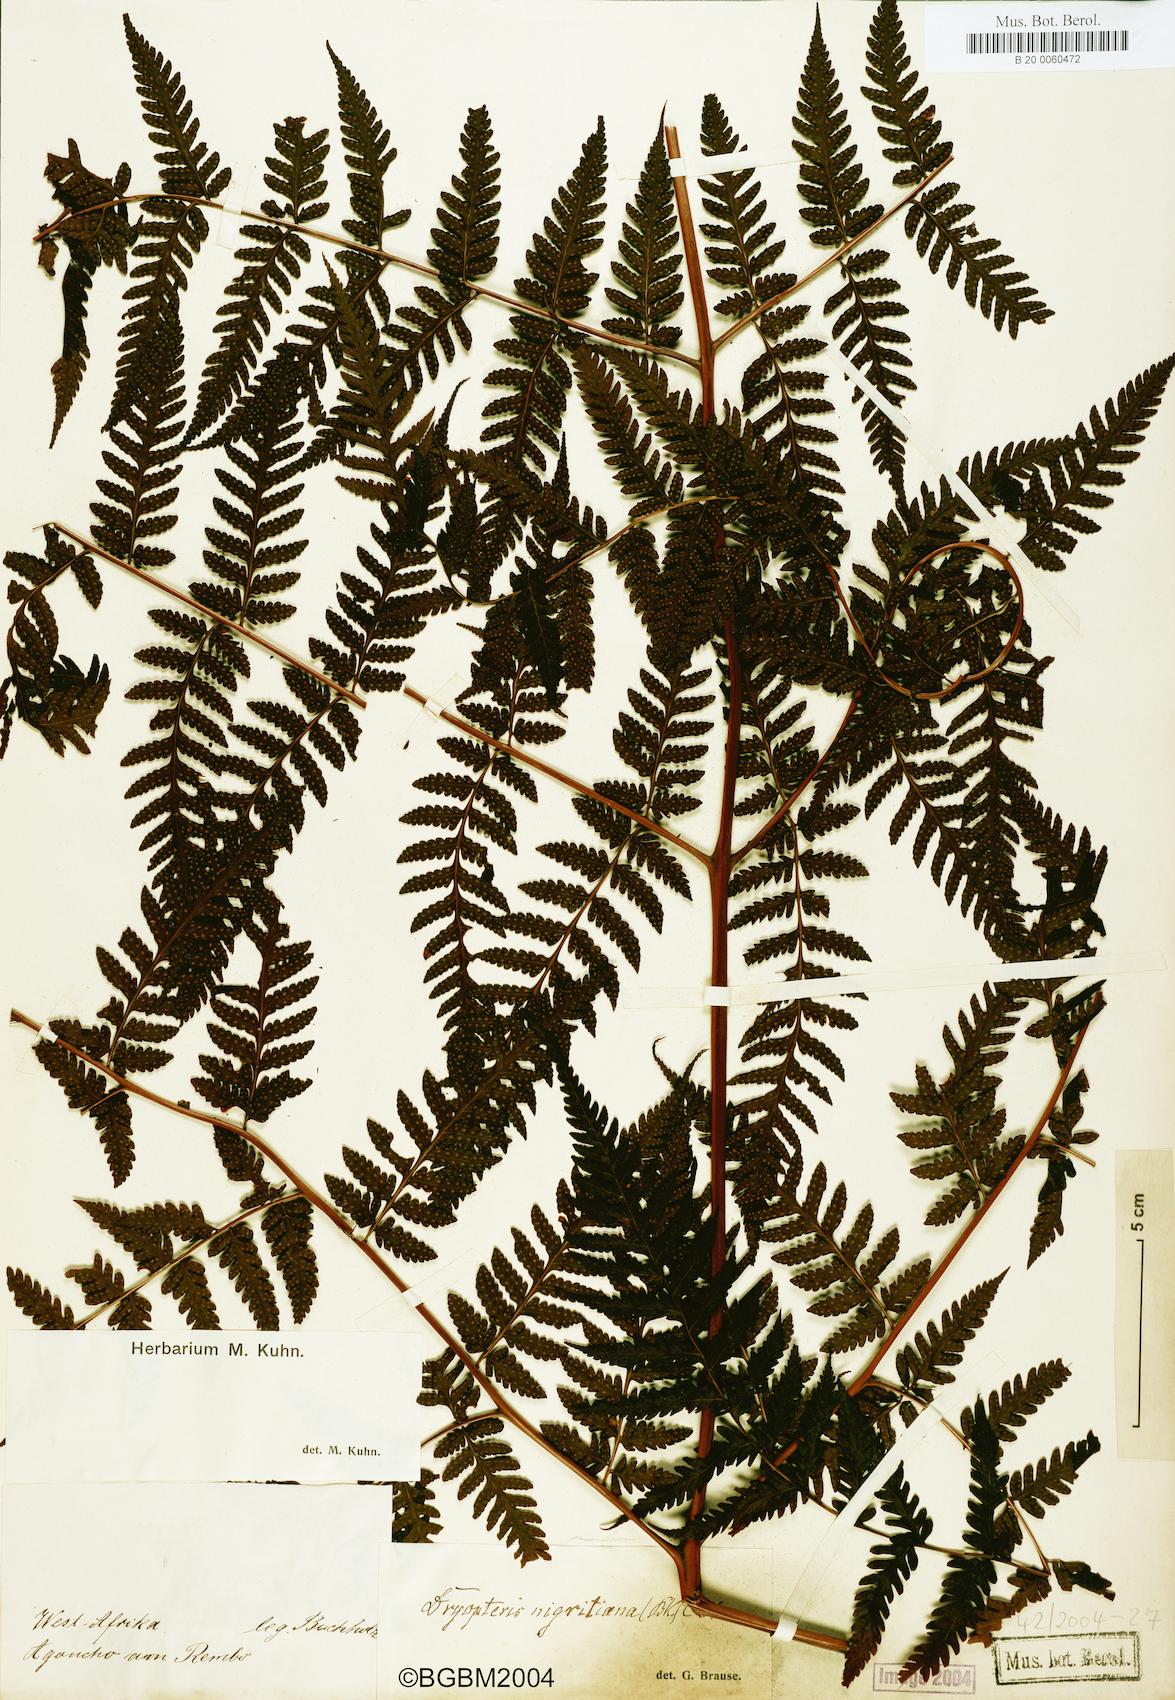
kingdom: Plantae
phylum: Tracheophyta
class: Polypodiopsida
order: Polypodiales
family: Dryopteridaceae
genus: Parapolystichum
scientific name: Parapolystichum nigritianum
